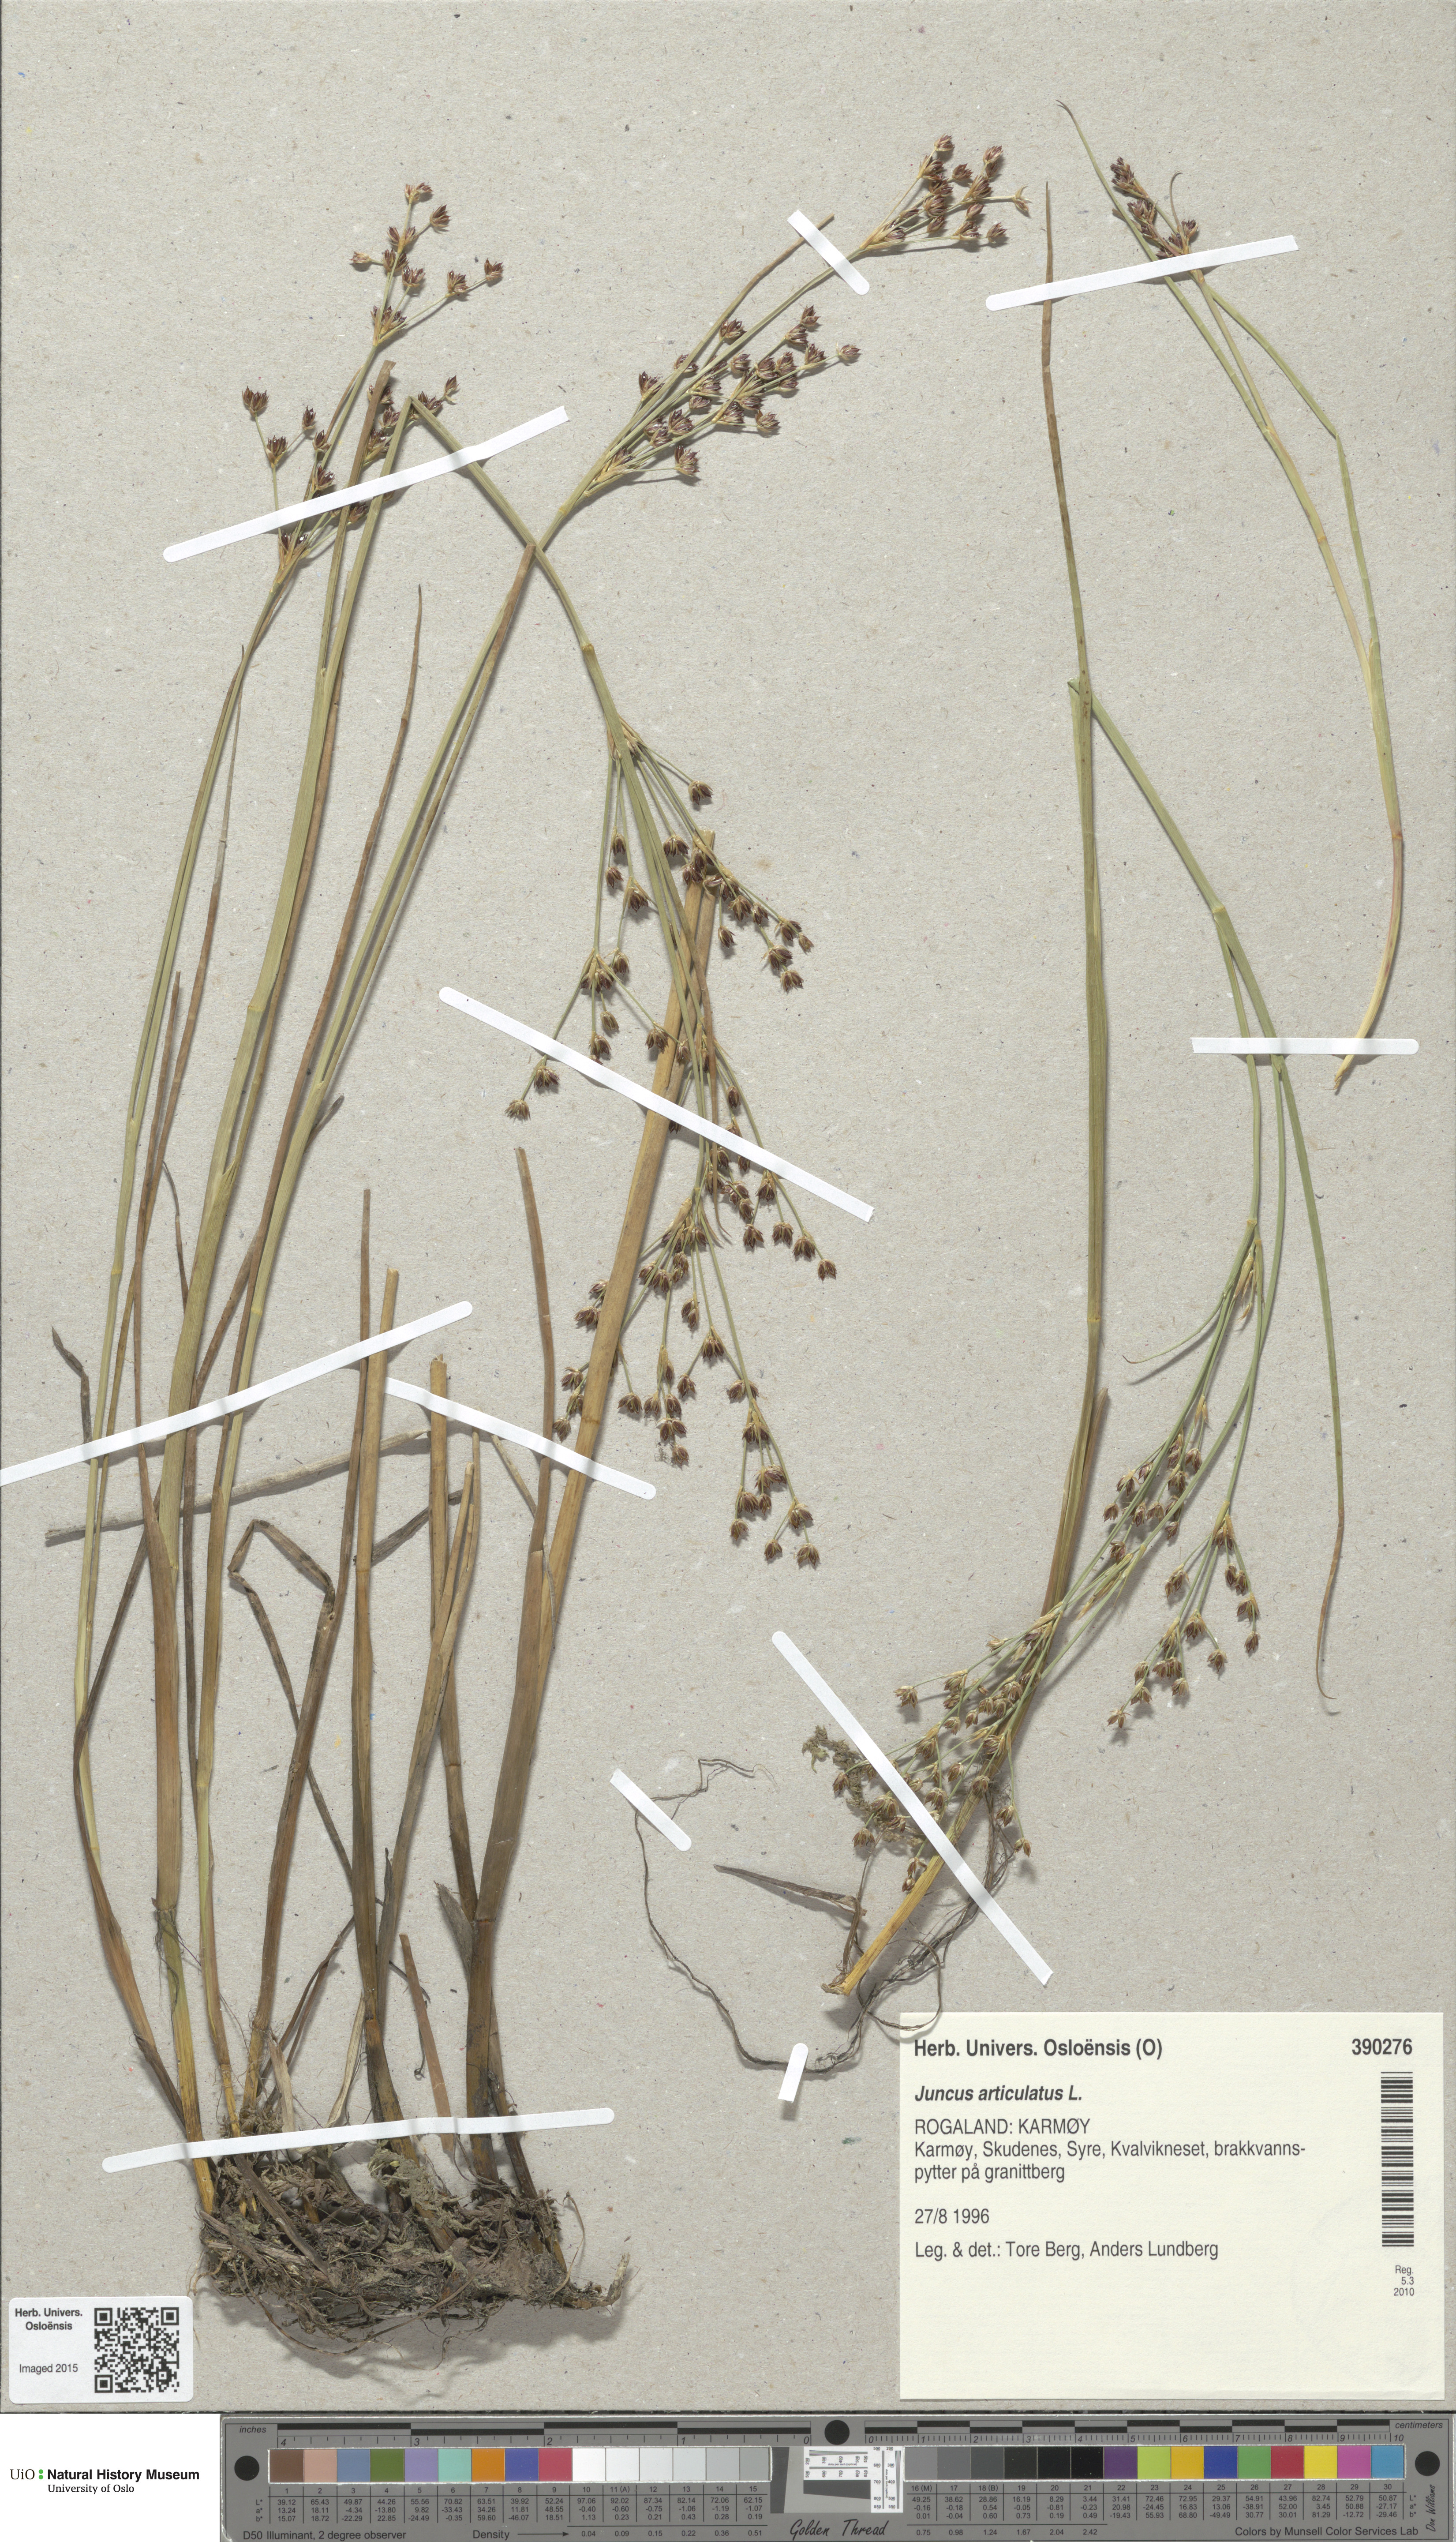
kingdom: Plantae
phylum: Tracheophyta
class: Liliopsida
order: Poales
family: Juncaceae
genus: Juncus
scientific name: Juncus articulatus
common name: Jointed rush
